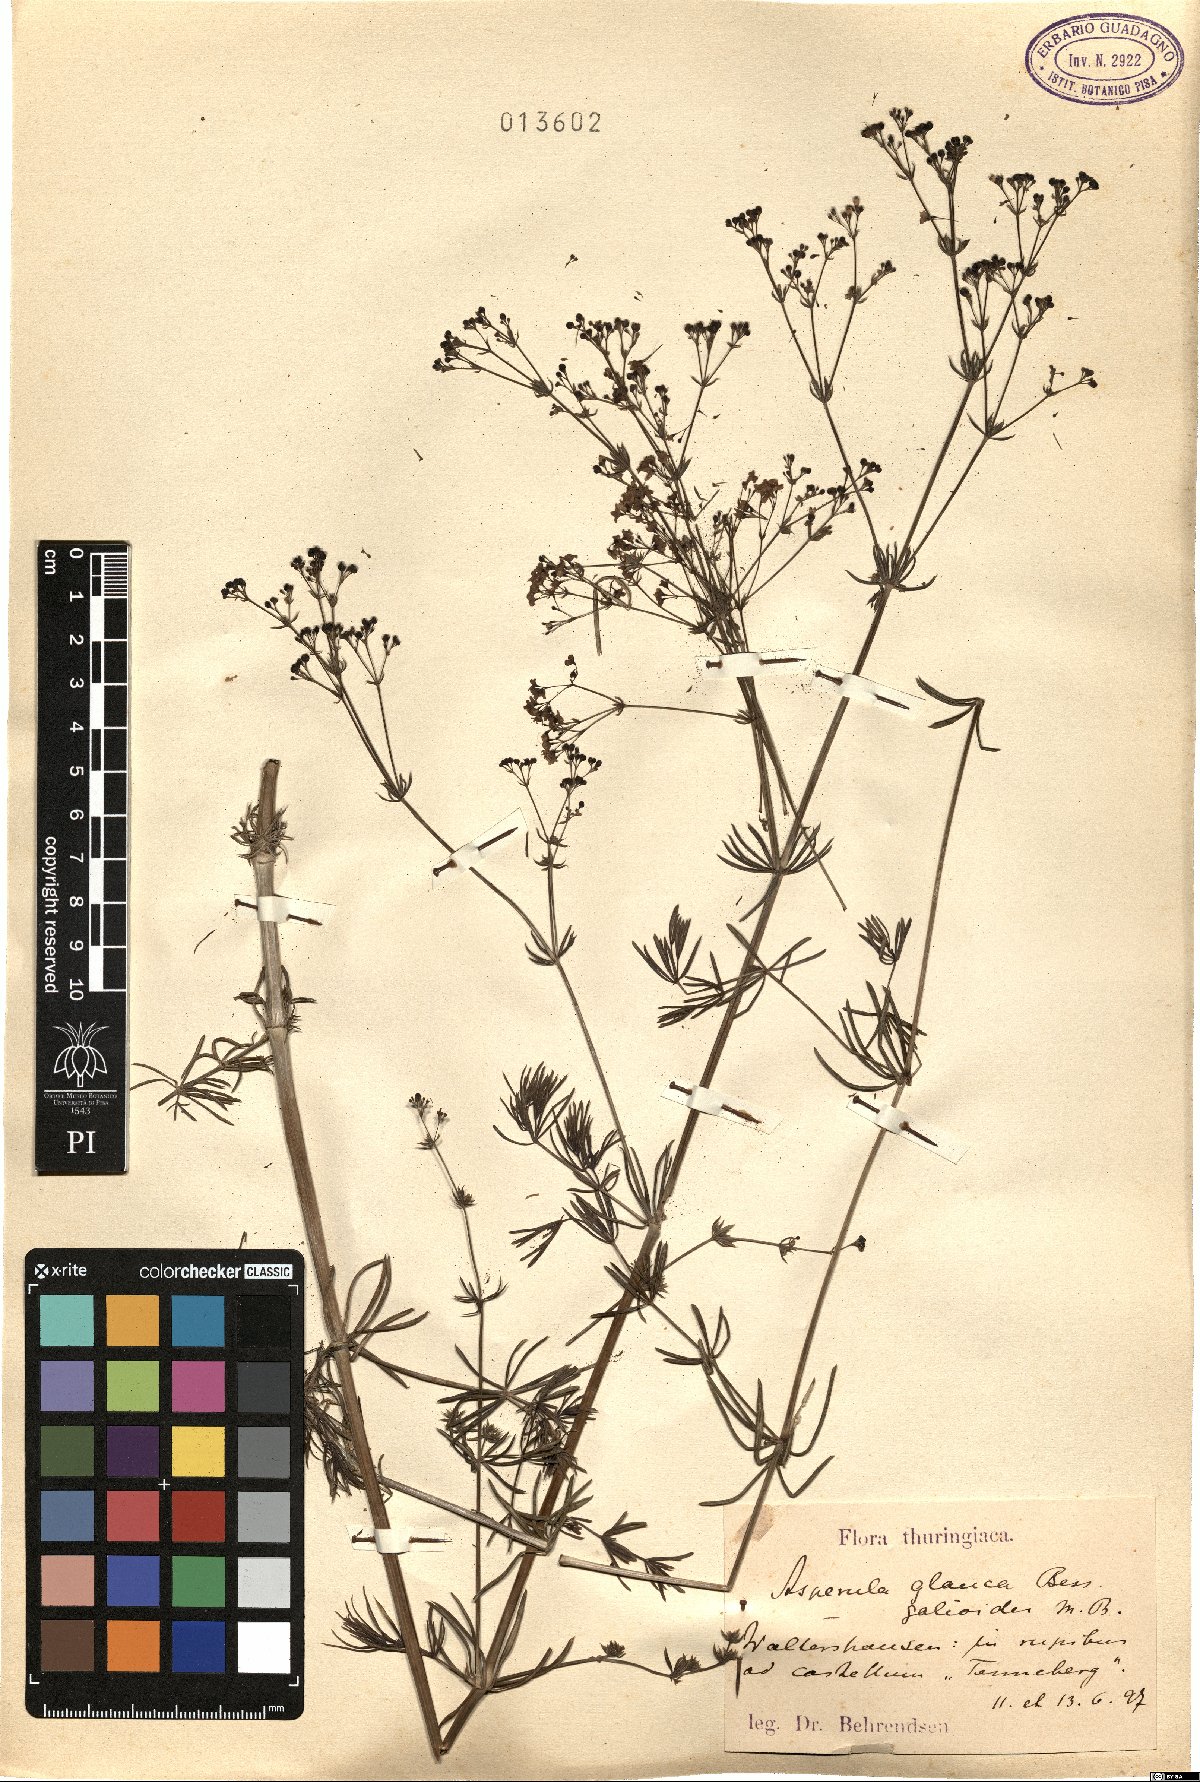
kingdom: Plantae
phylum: Tracheophyta
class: Magnoliopsida
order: Gentianales
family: Rubiaceae
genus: Galium
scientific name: Galium glaucum
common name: Waxy bedstraw
